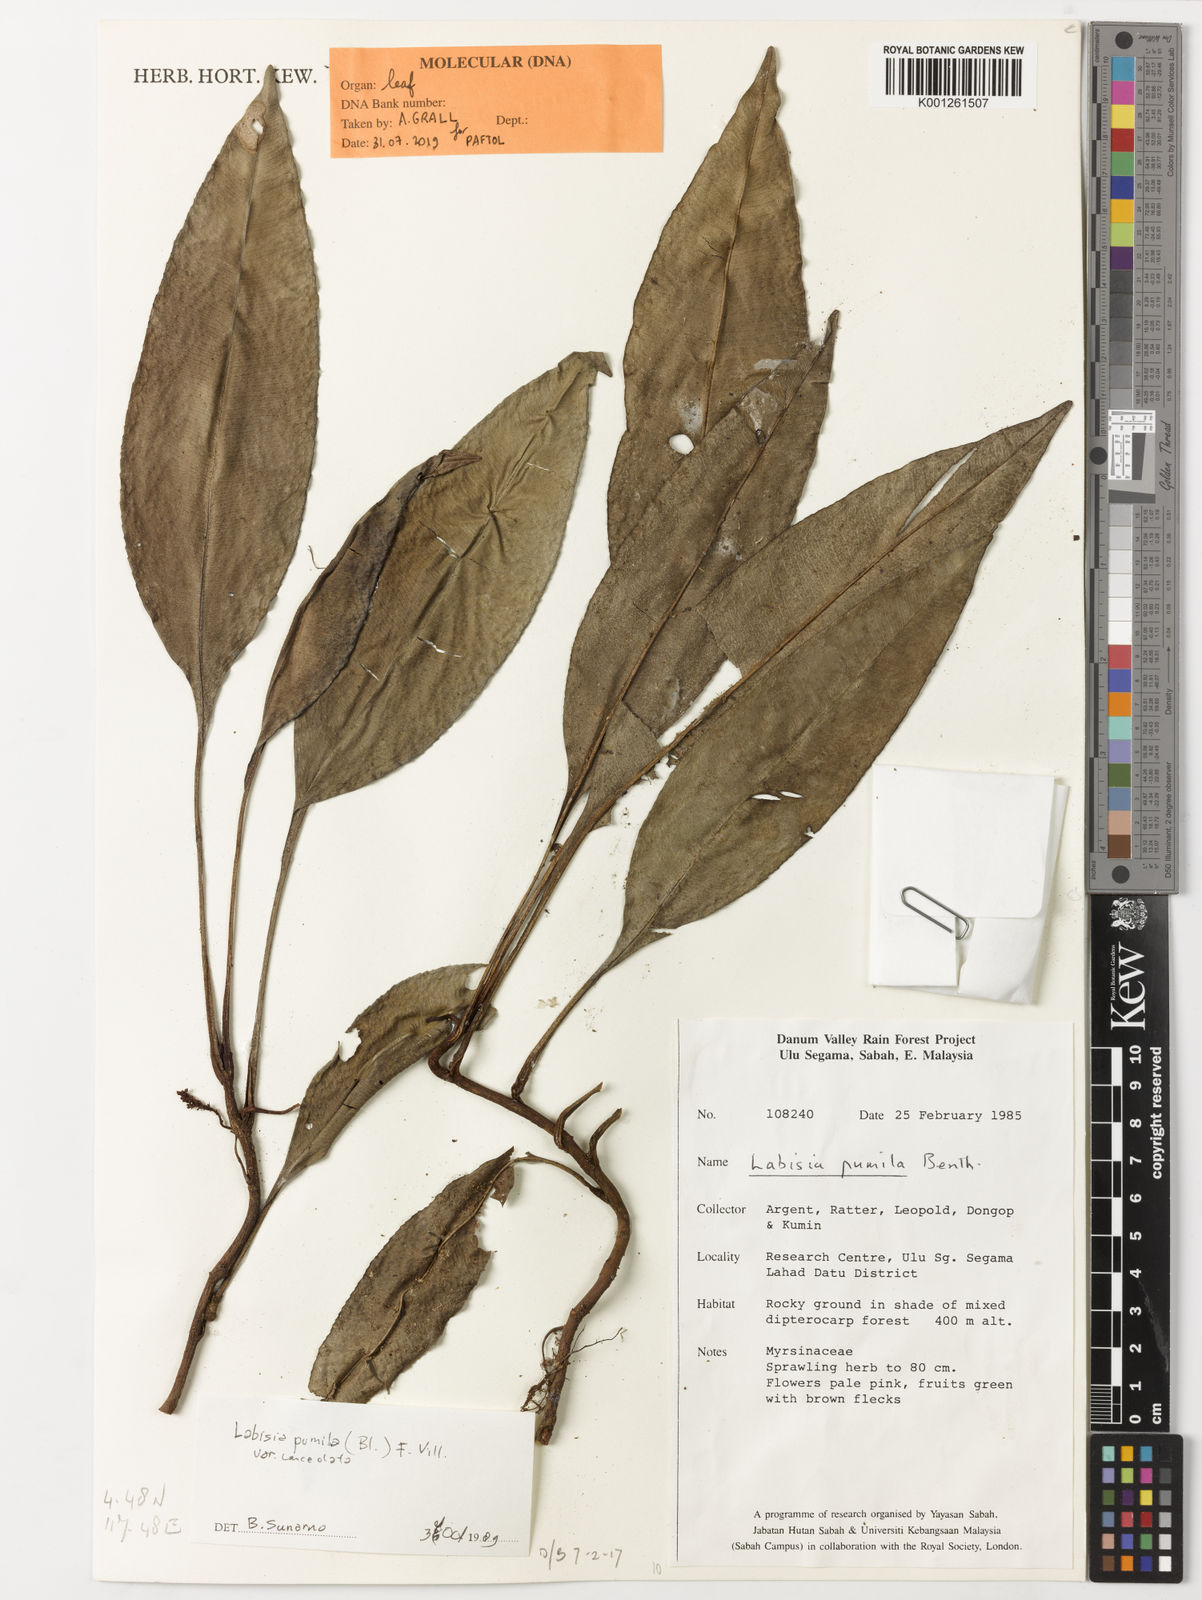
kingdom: Plantae
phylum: Tracheophyta
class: Magnoliopsida
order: Ericales
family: Primulaceae
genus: Labisia
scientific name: Labisia pumila
